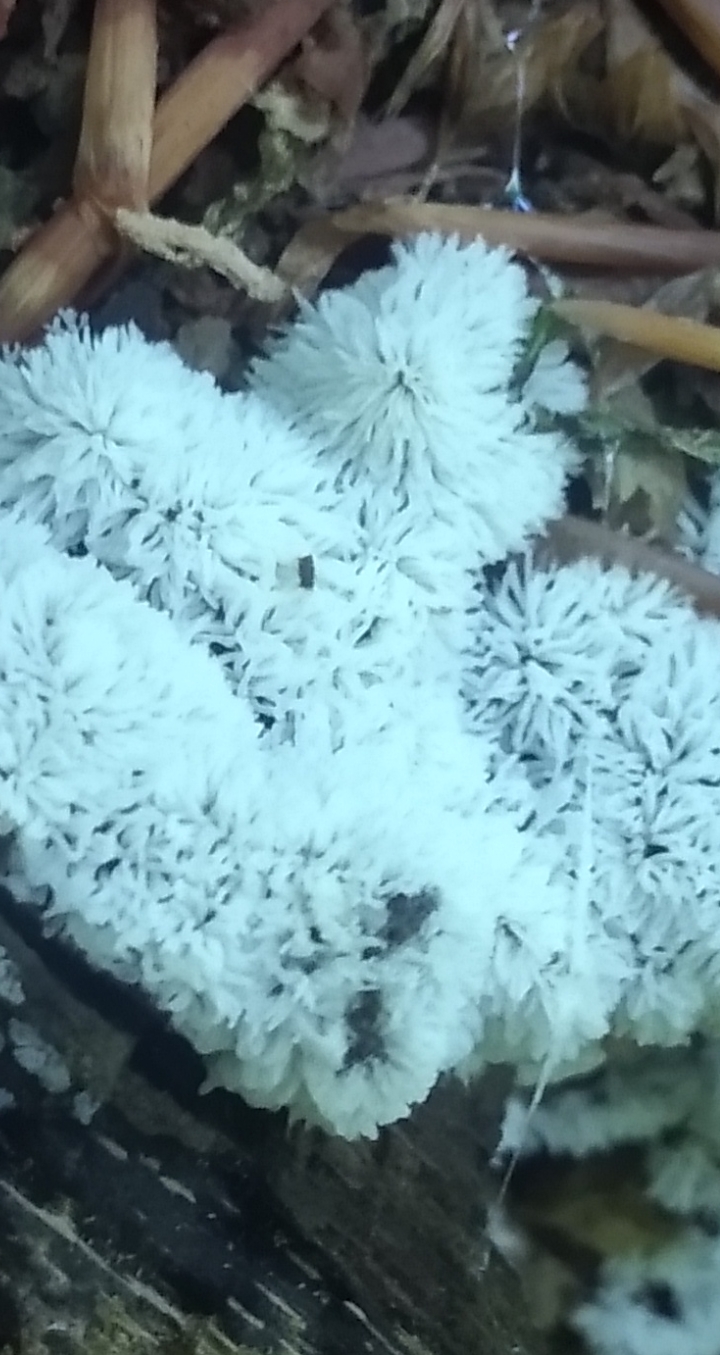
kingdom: Protozoa
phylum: Mycetozoa
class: Protosteliomycetes
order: Ceratiomyxales
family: Ceratiomyxaceae
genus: Ceratiomyxa
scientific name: Ceratiomyxa fruticulosa
